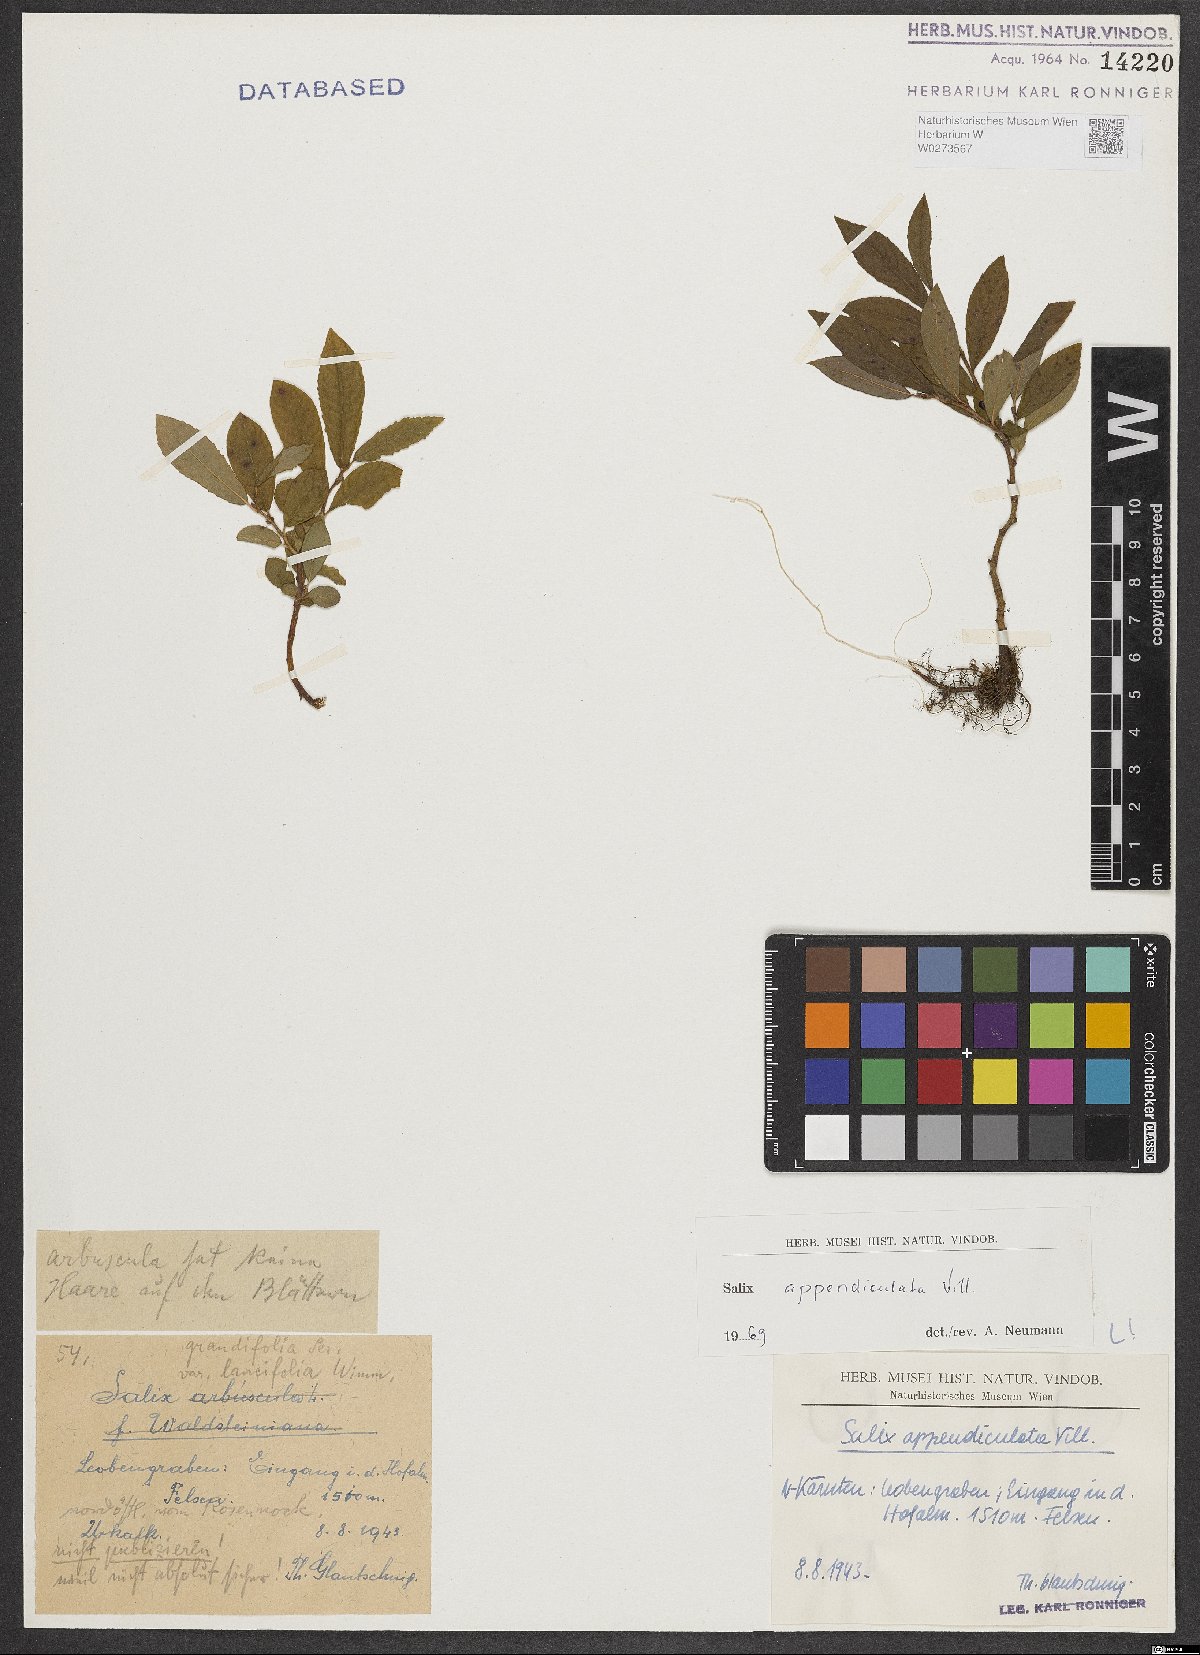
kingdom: Plantae
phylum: Tracheophyta
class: Magnoliopsida
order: Malpighiales
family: Salicaceae
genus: Salix
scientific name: Salix appendiculata
